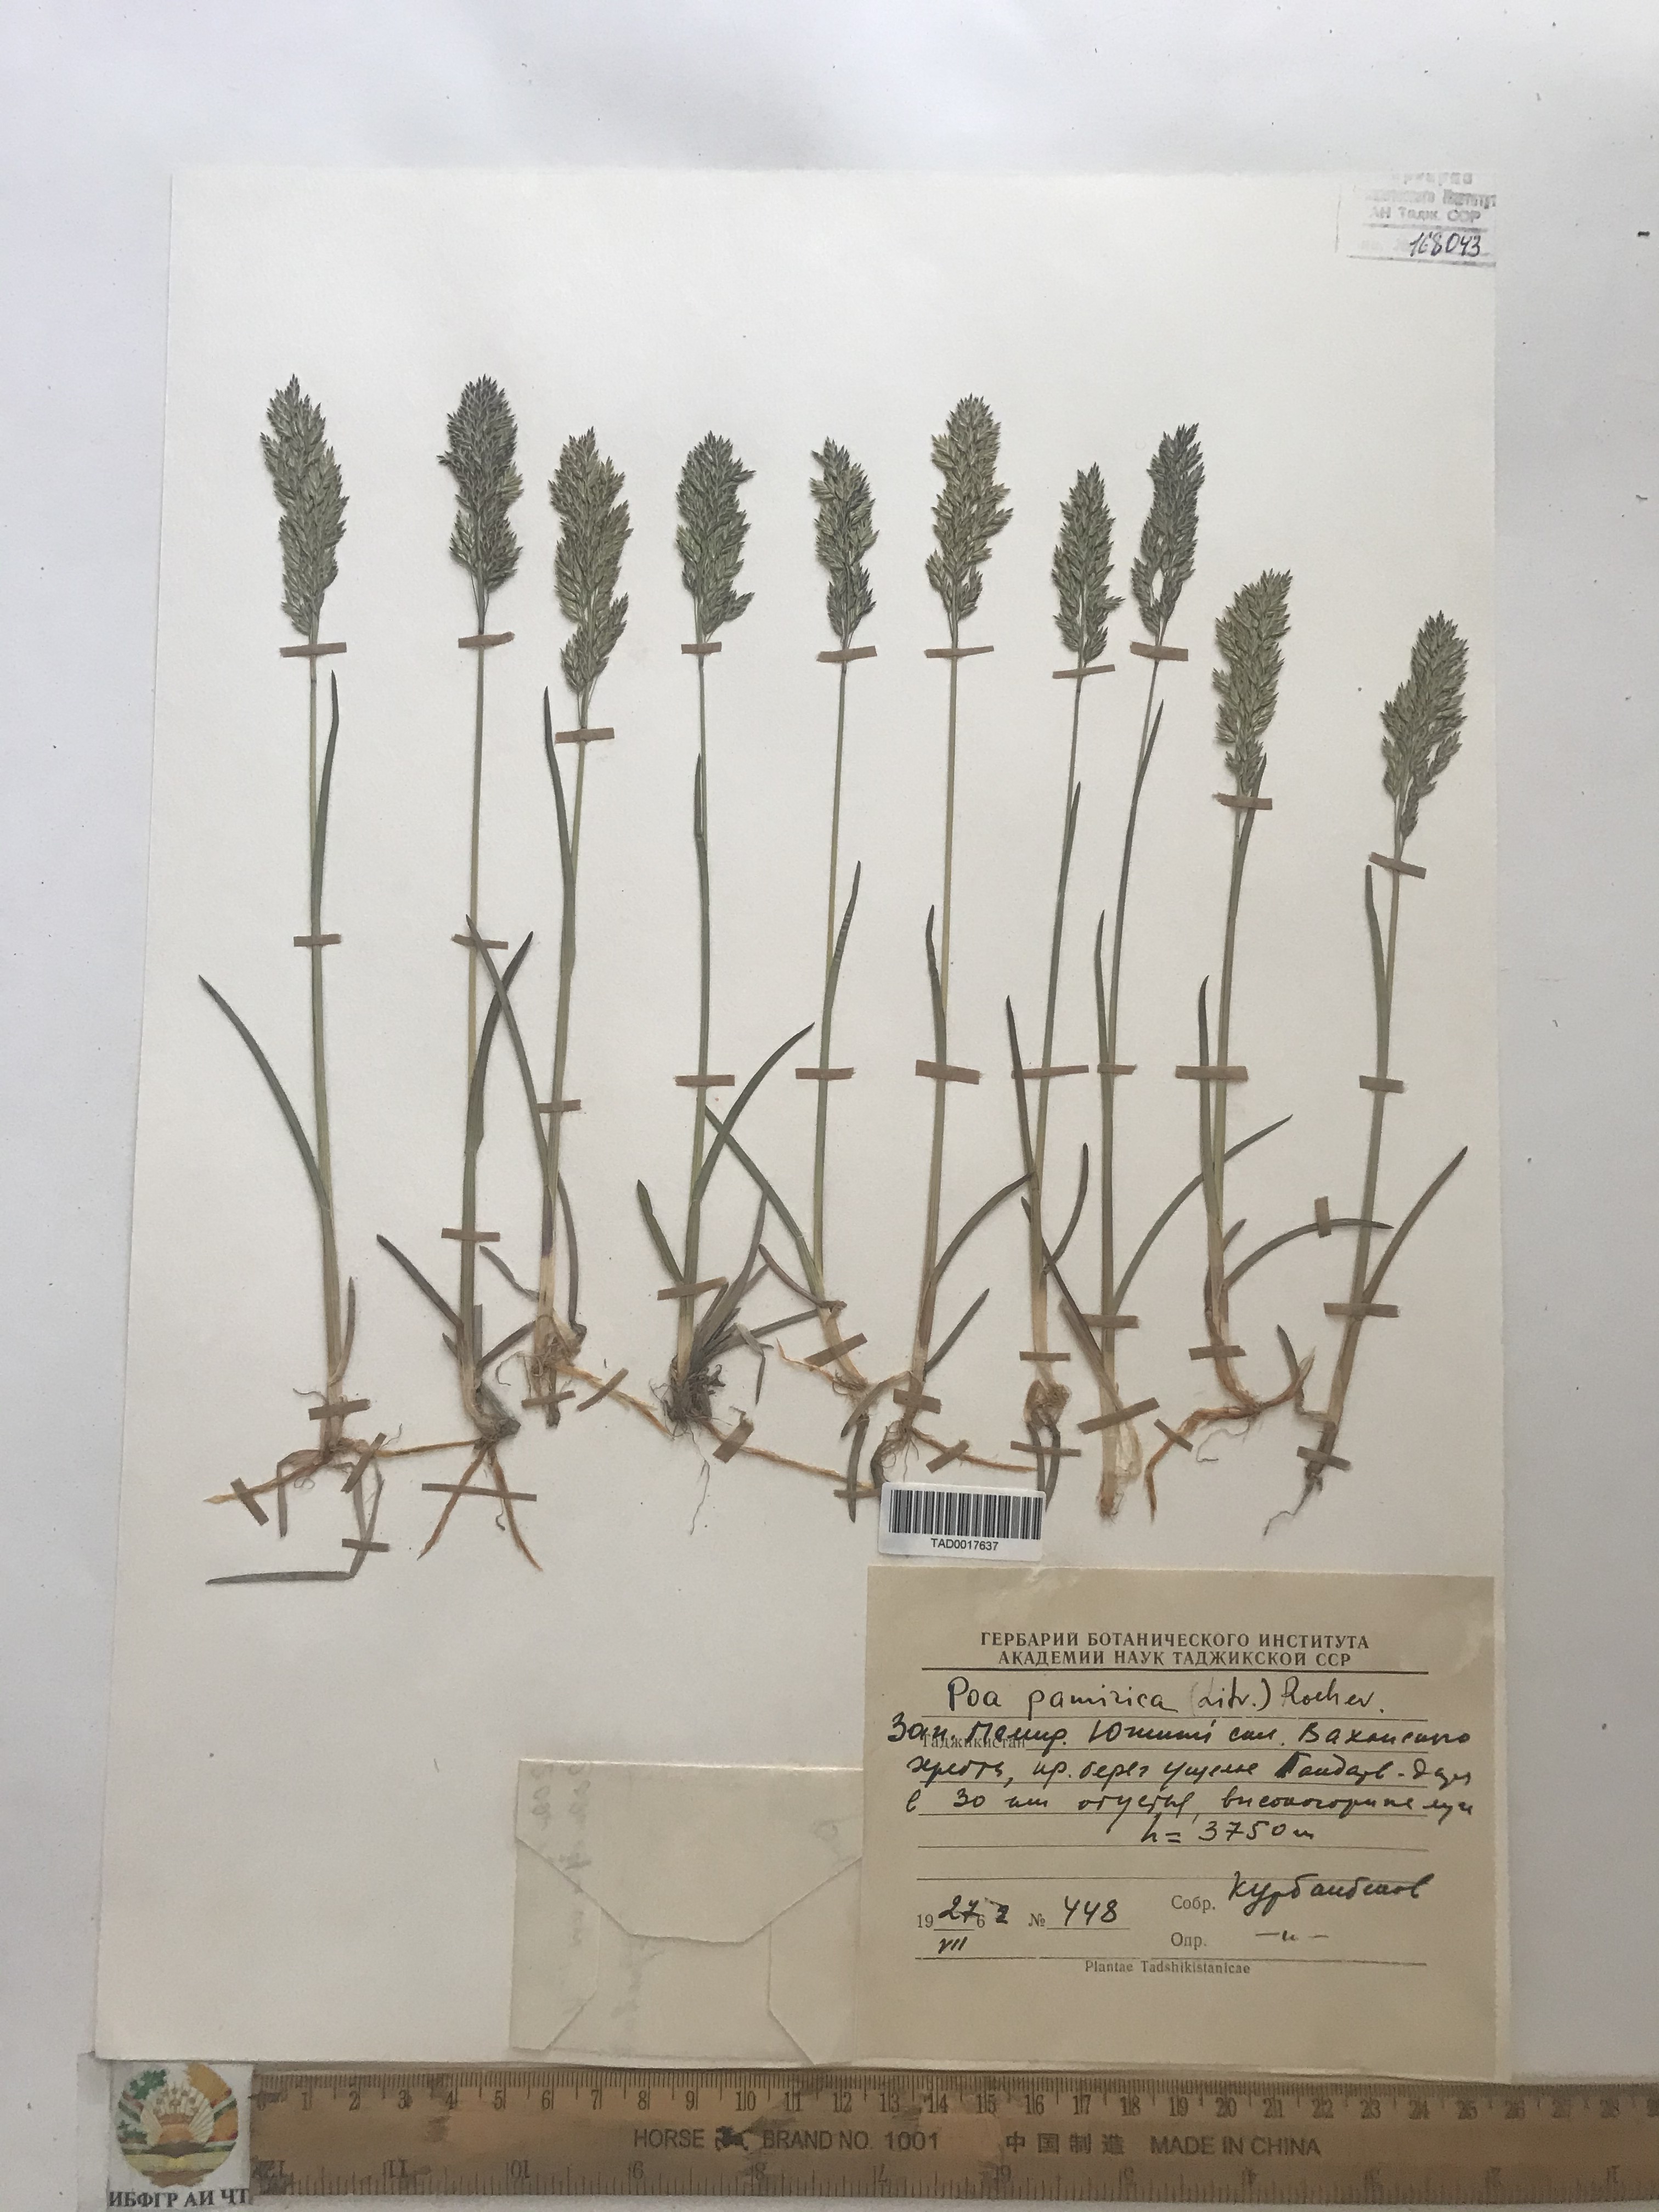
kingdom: Plantae
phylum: Tracheophyta
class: Liliopsida
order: Poales
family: Poaceae
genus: Poa
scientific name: Poa tianschanica
